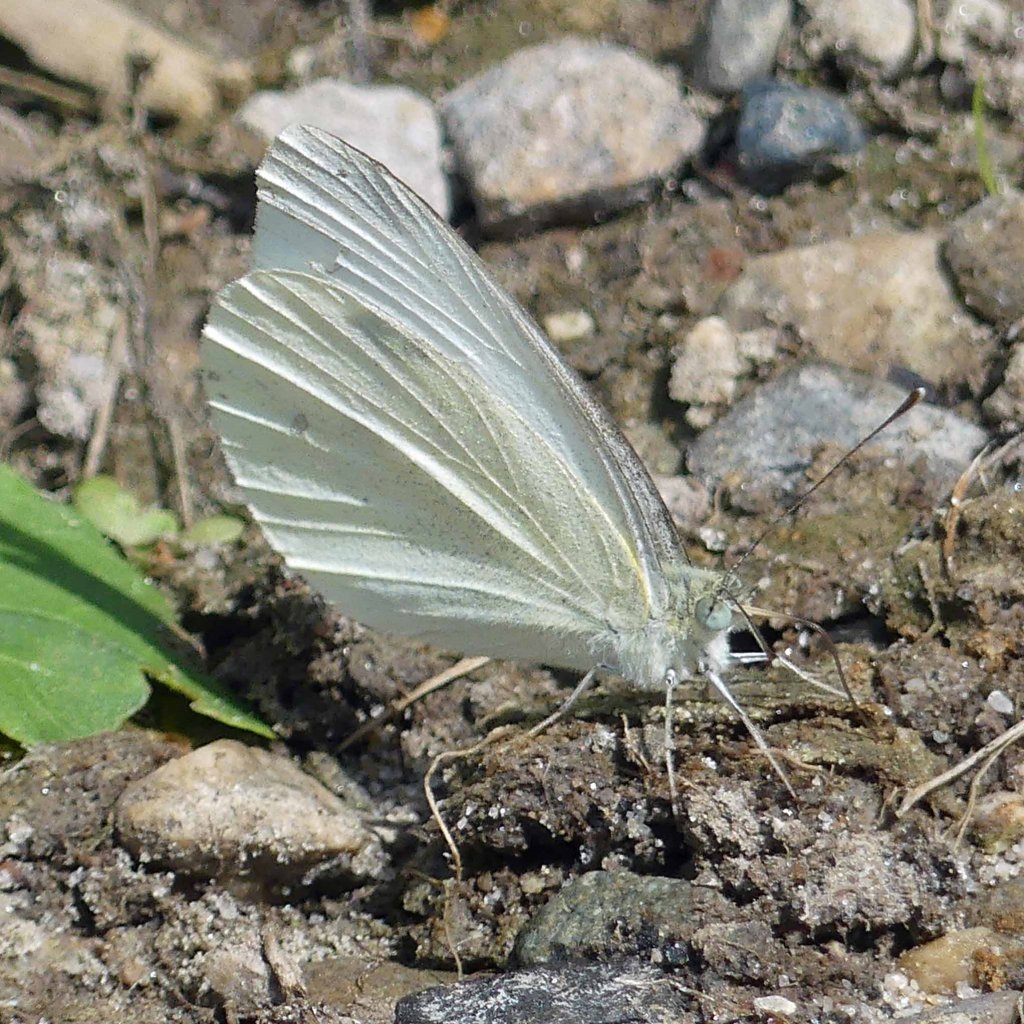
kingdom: Animalia
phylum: Arthropoda
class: Insecta
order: Lepidoptera
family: Pieridae
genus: Pieris
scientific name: Pieris rapae
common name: Cabbage White
